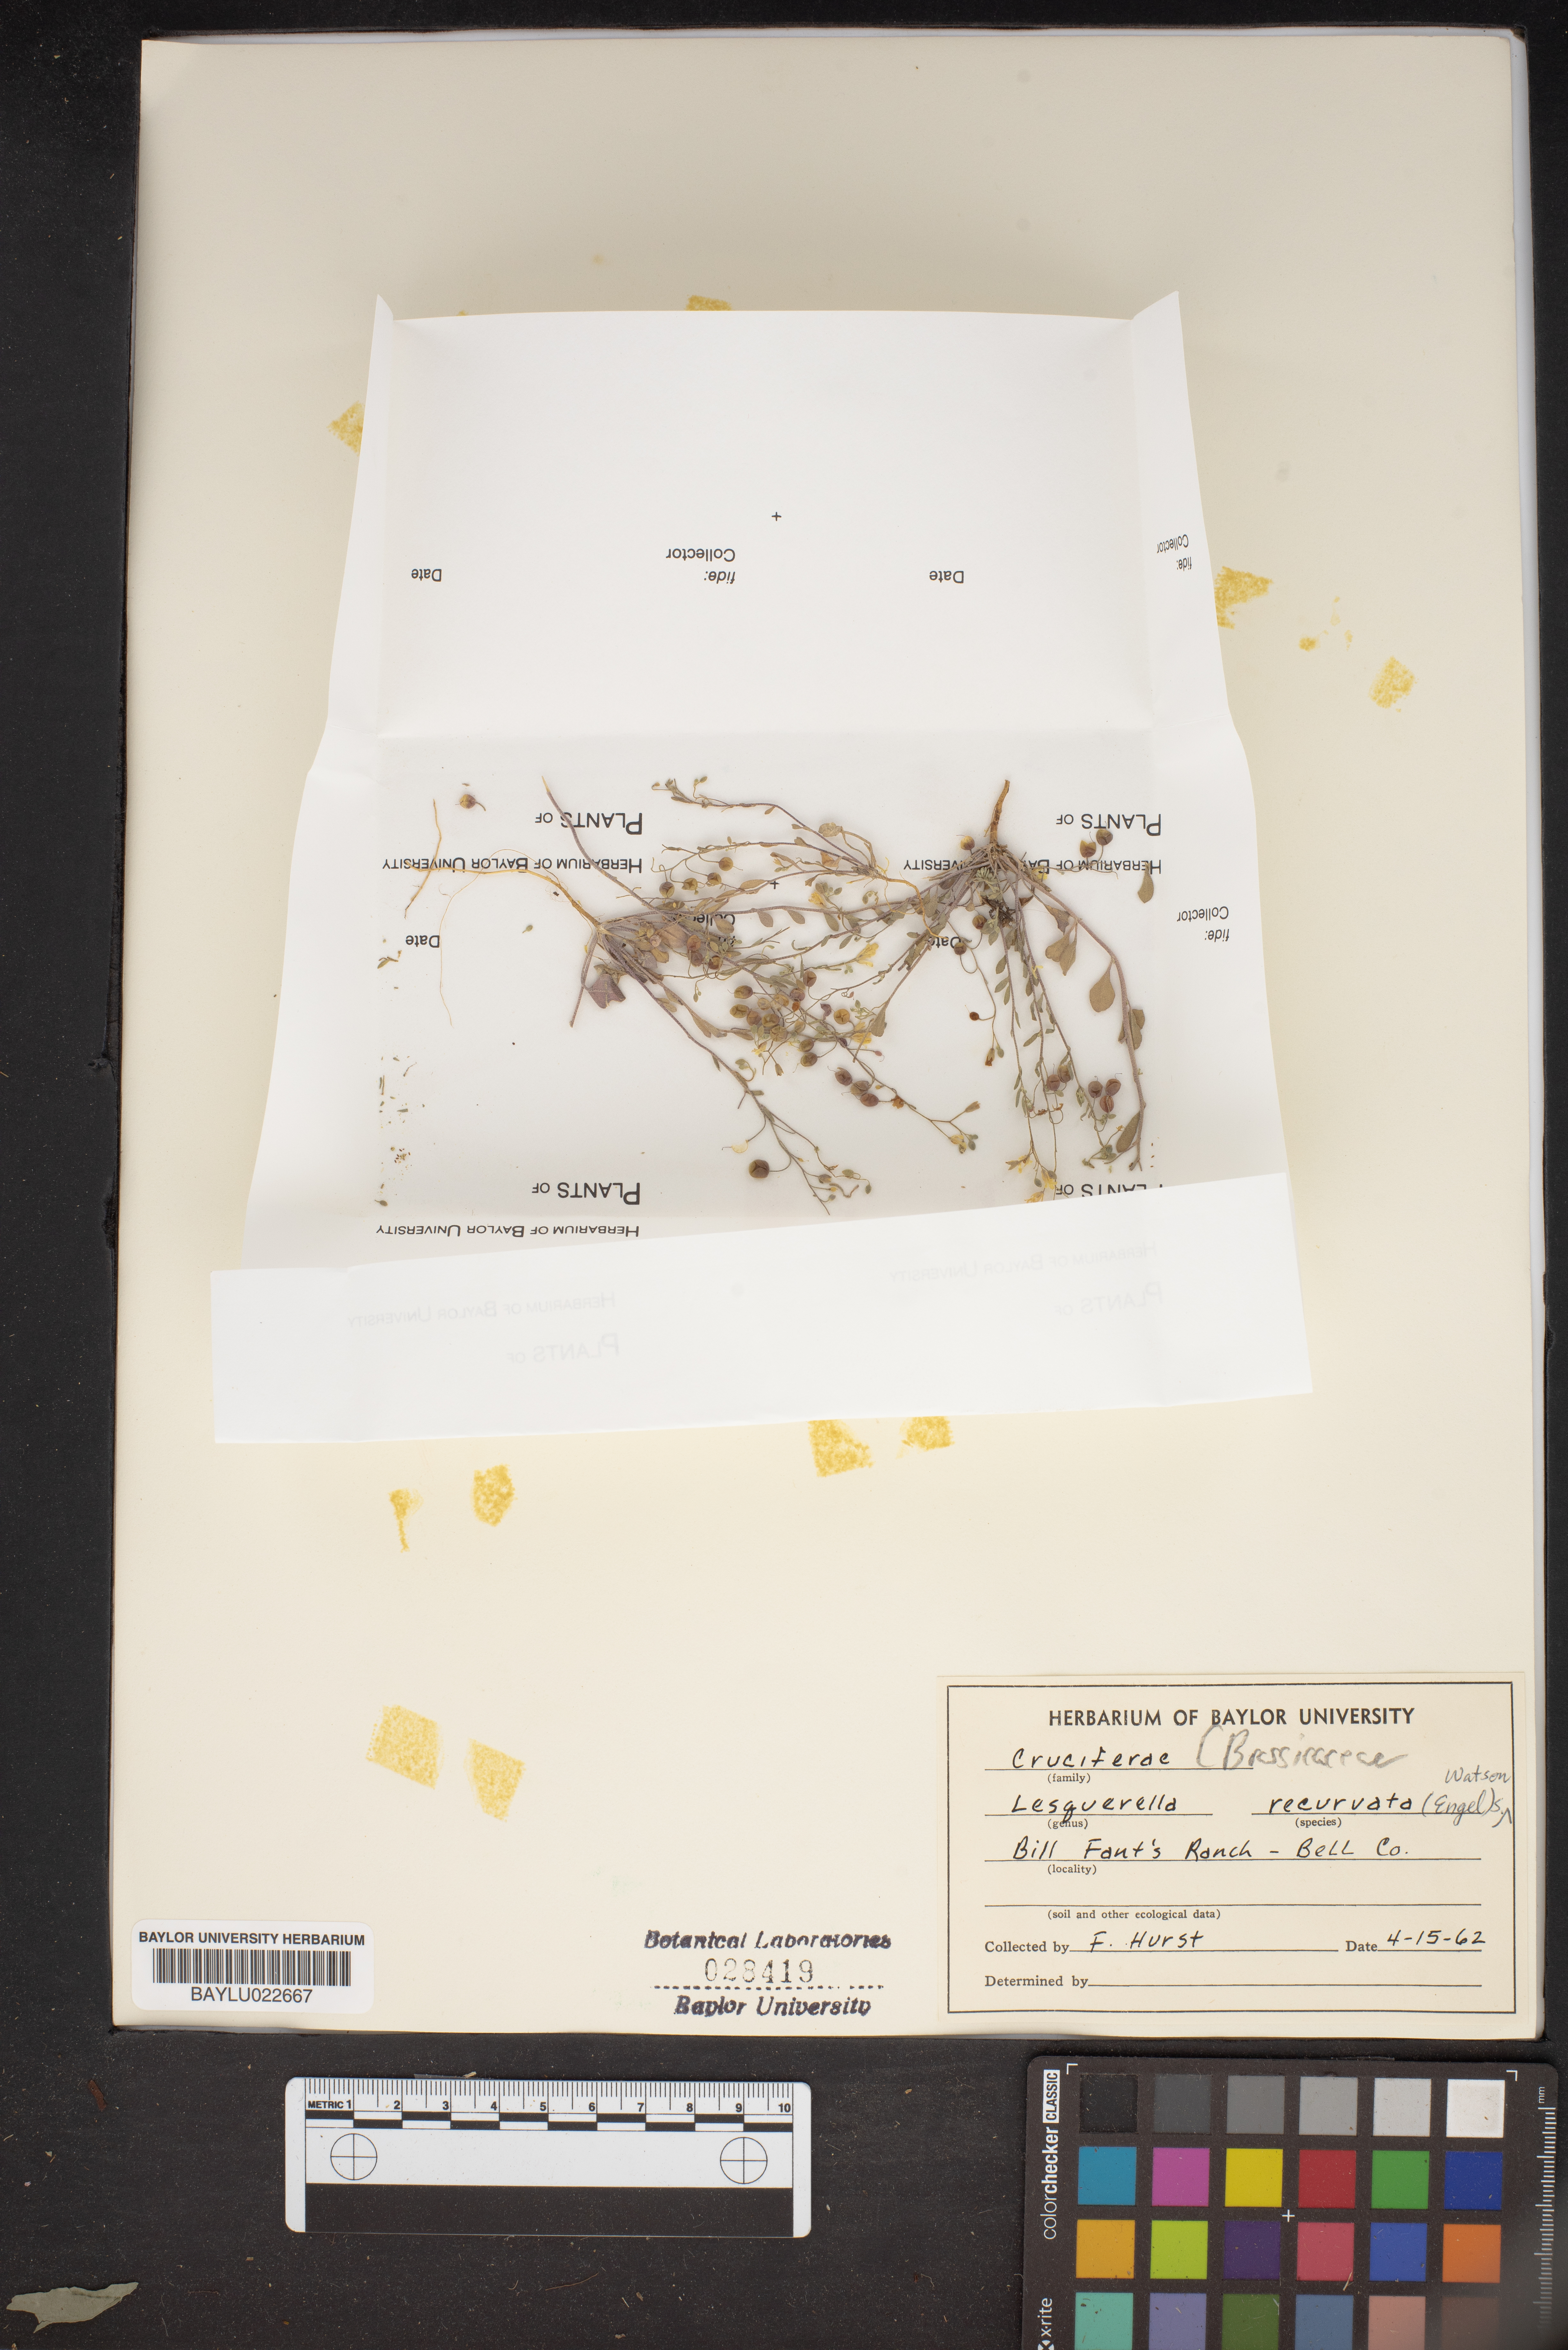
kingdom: Plantae
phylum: Tracheophyta
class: Magnoliopsida
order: Brassicales
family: Brassicaceae
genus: Physaria
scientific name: Physaria recurvata
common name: Gaslight bladderpod
